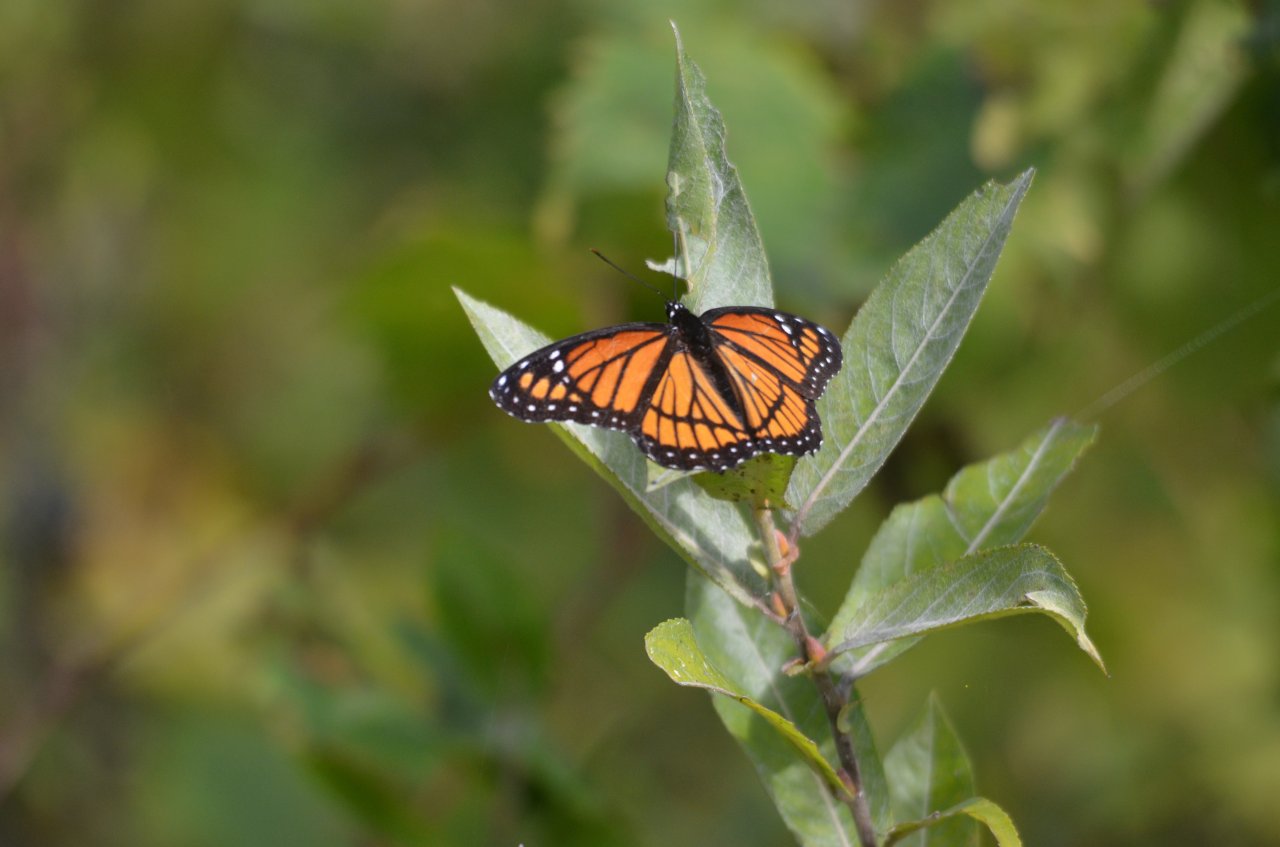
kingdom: Animalia
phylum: Arthropoda
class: Insecta
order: Lepidoptera
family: Nymphalidae
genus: Limenitis
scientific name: Limenitis archippus
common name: Viceroy
